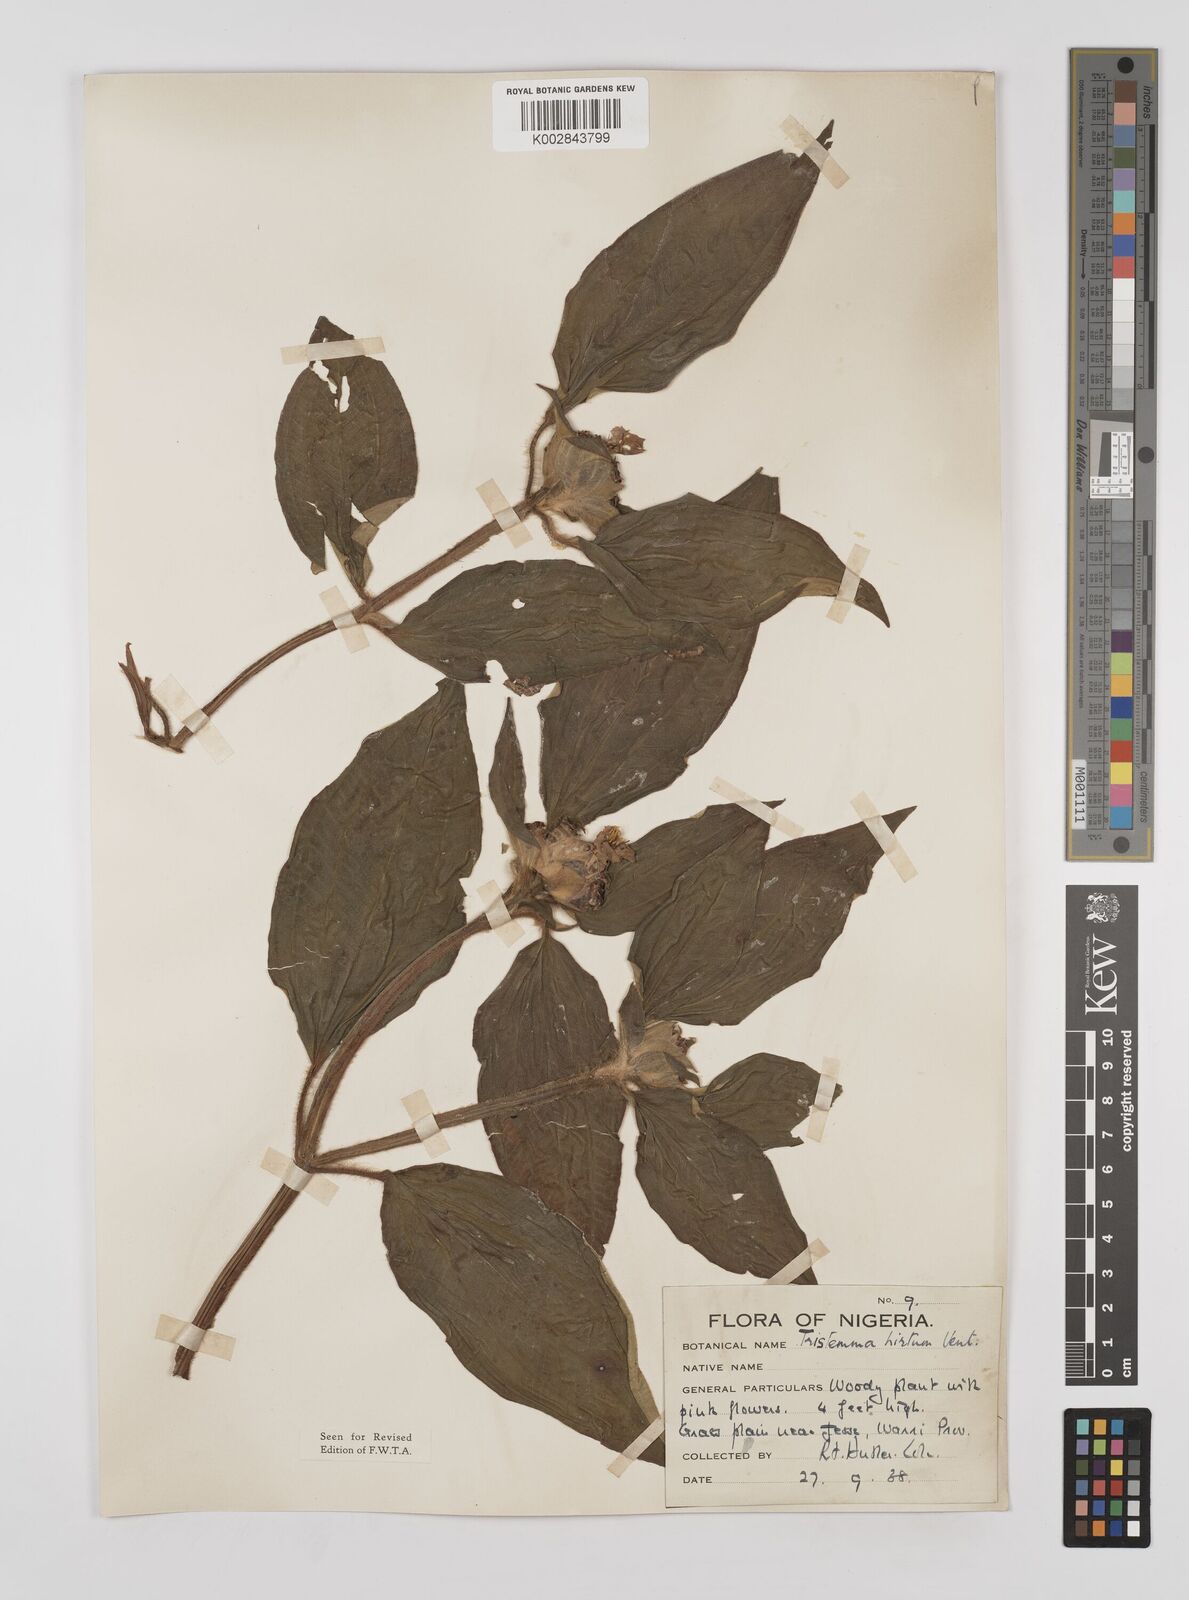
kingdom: Plantae
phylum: Tracheophyta
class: Magnoliopsida
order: Myrtales
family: Melastomataceae
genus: Tristemma
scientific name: Tristemma hirtum
